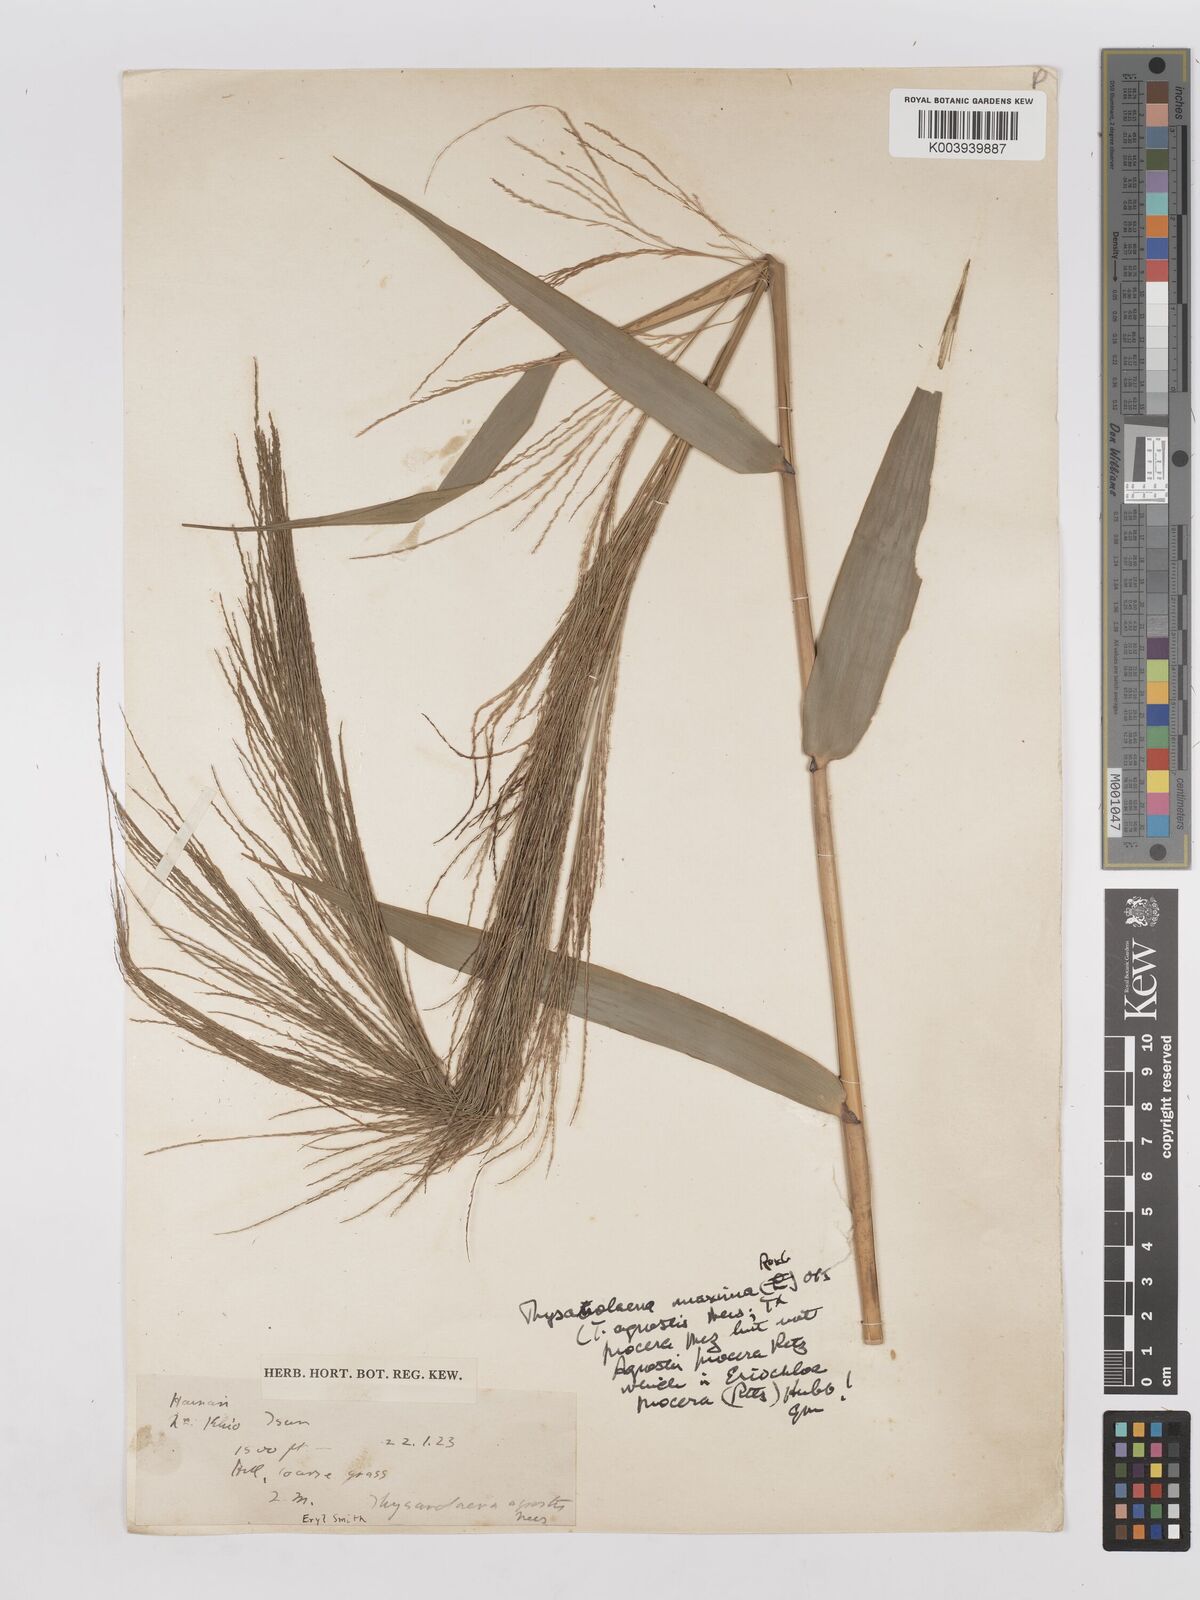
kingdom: Plantae
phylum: Tracheophyta
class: Liliopsida
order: Poales
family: Poaceae
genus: Thysanolaena
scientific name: Thysanolaena latifolia
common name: Tiger grass
